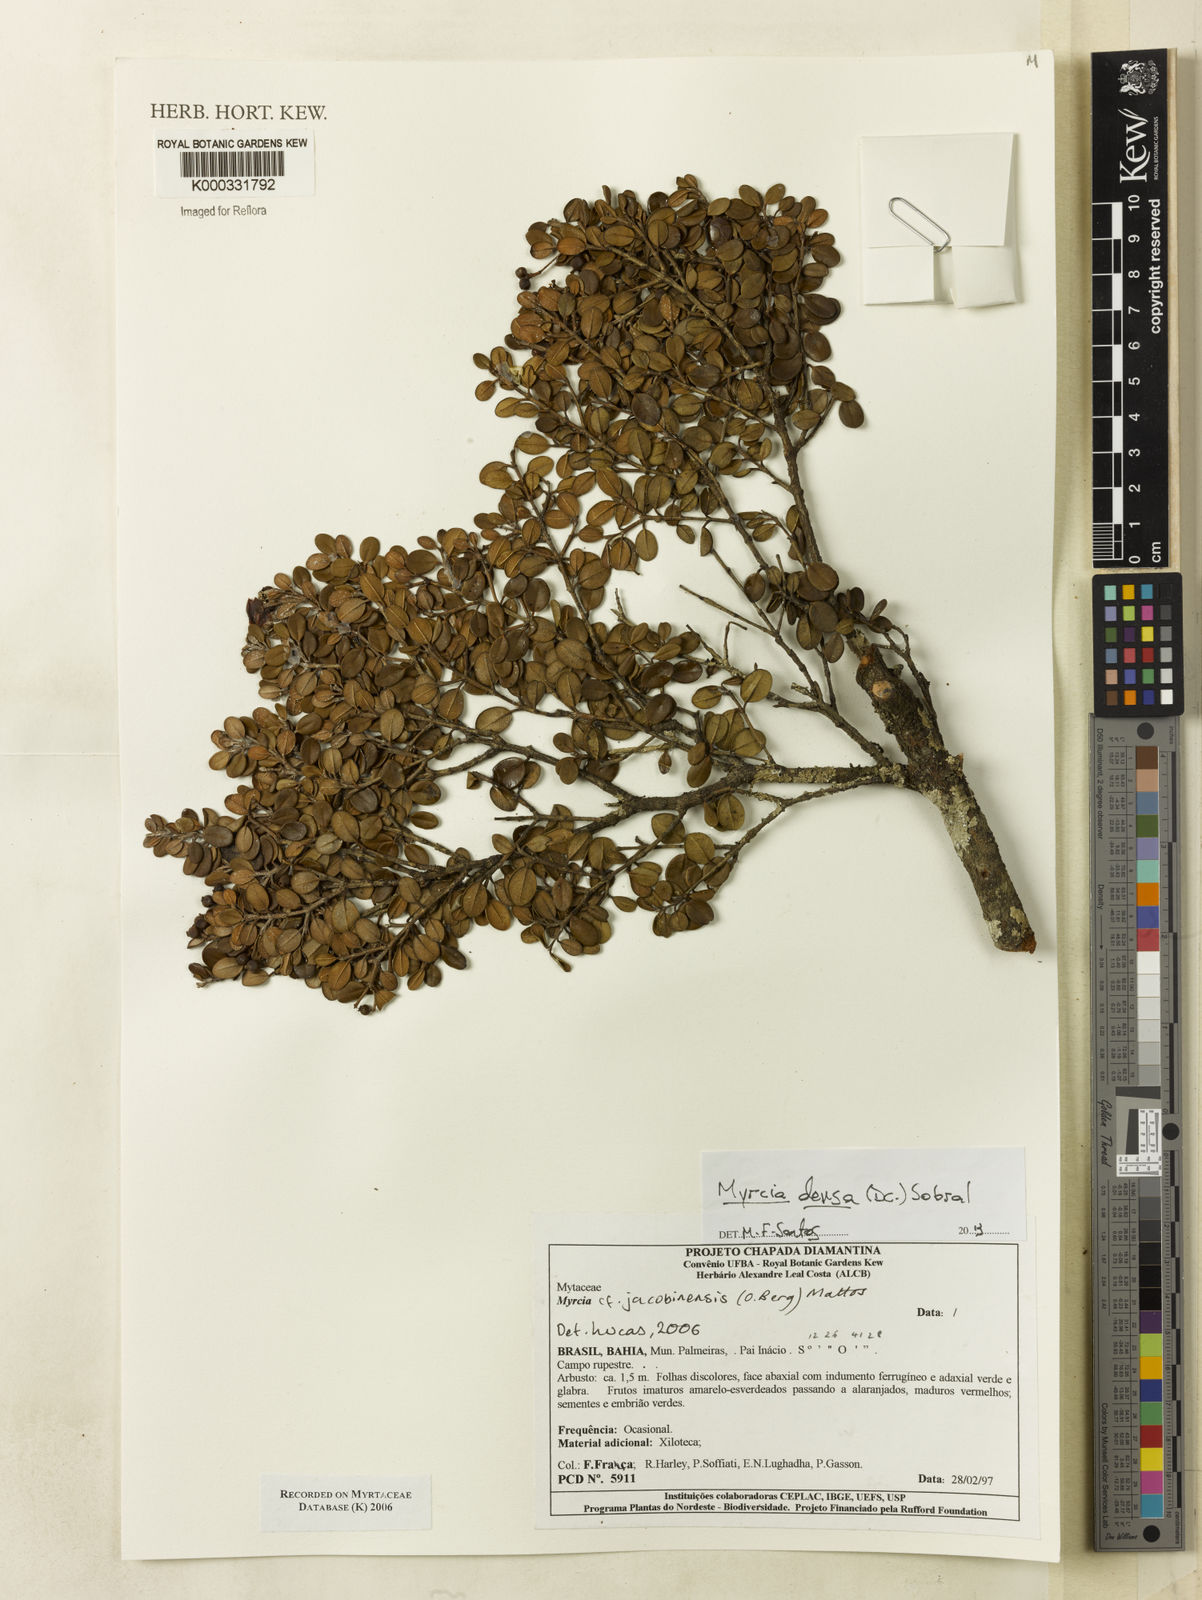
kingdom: Plantae
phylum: Tracheophyta
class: Magnoliopsida
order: Myrtales
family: Myrtaceae
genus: Myrcia
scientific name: Myrcia jacobinensis
